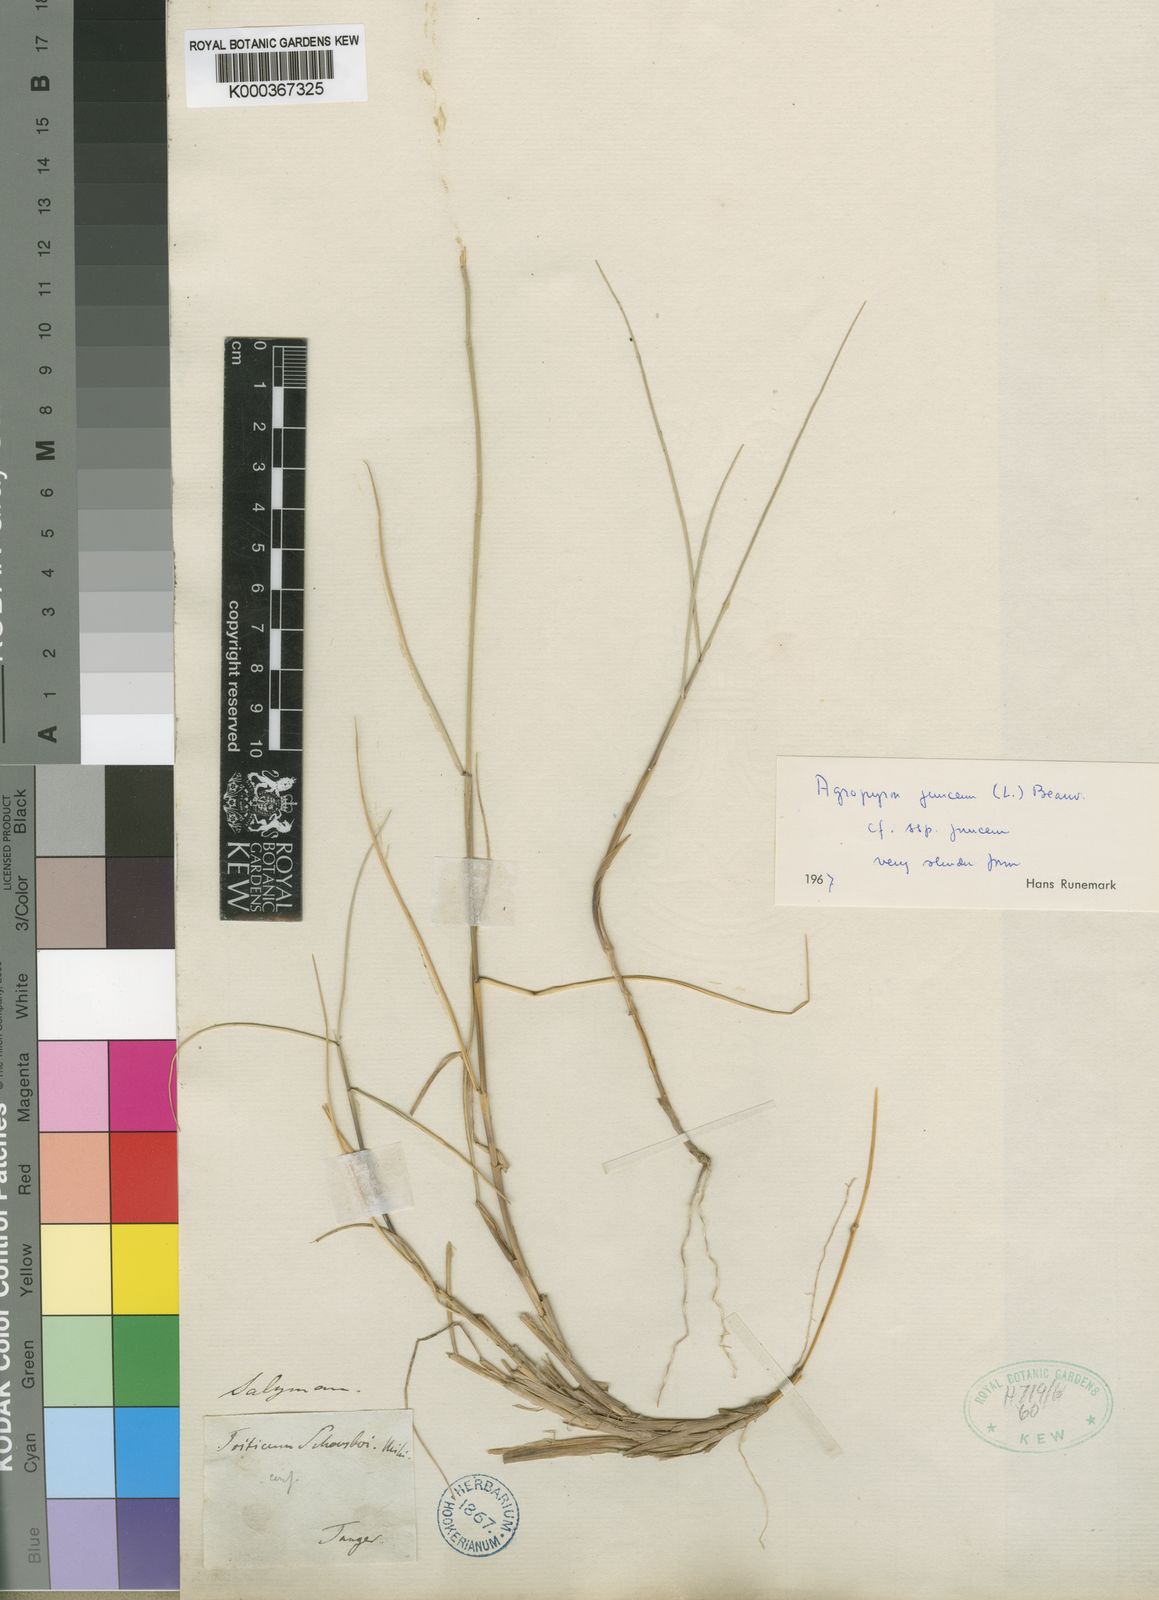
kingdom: Plantae
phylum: Tracheophyta
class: Liliopsida
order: Poales
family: Poaceae
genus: Thinopyrum
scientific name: Thinopyrum junceum
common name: Russian wheatgrass
